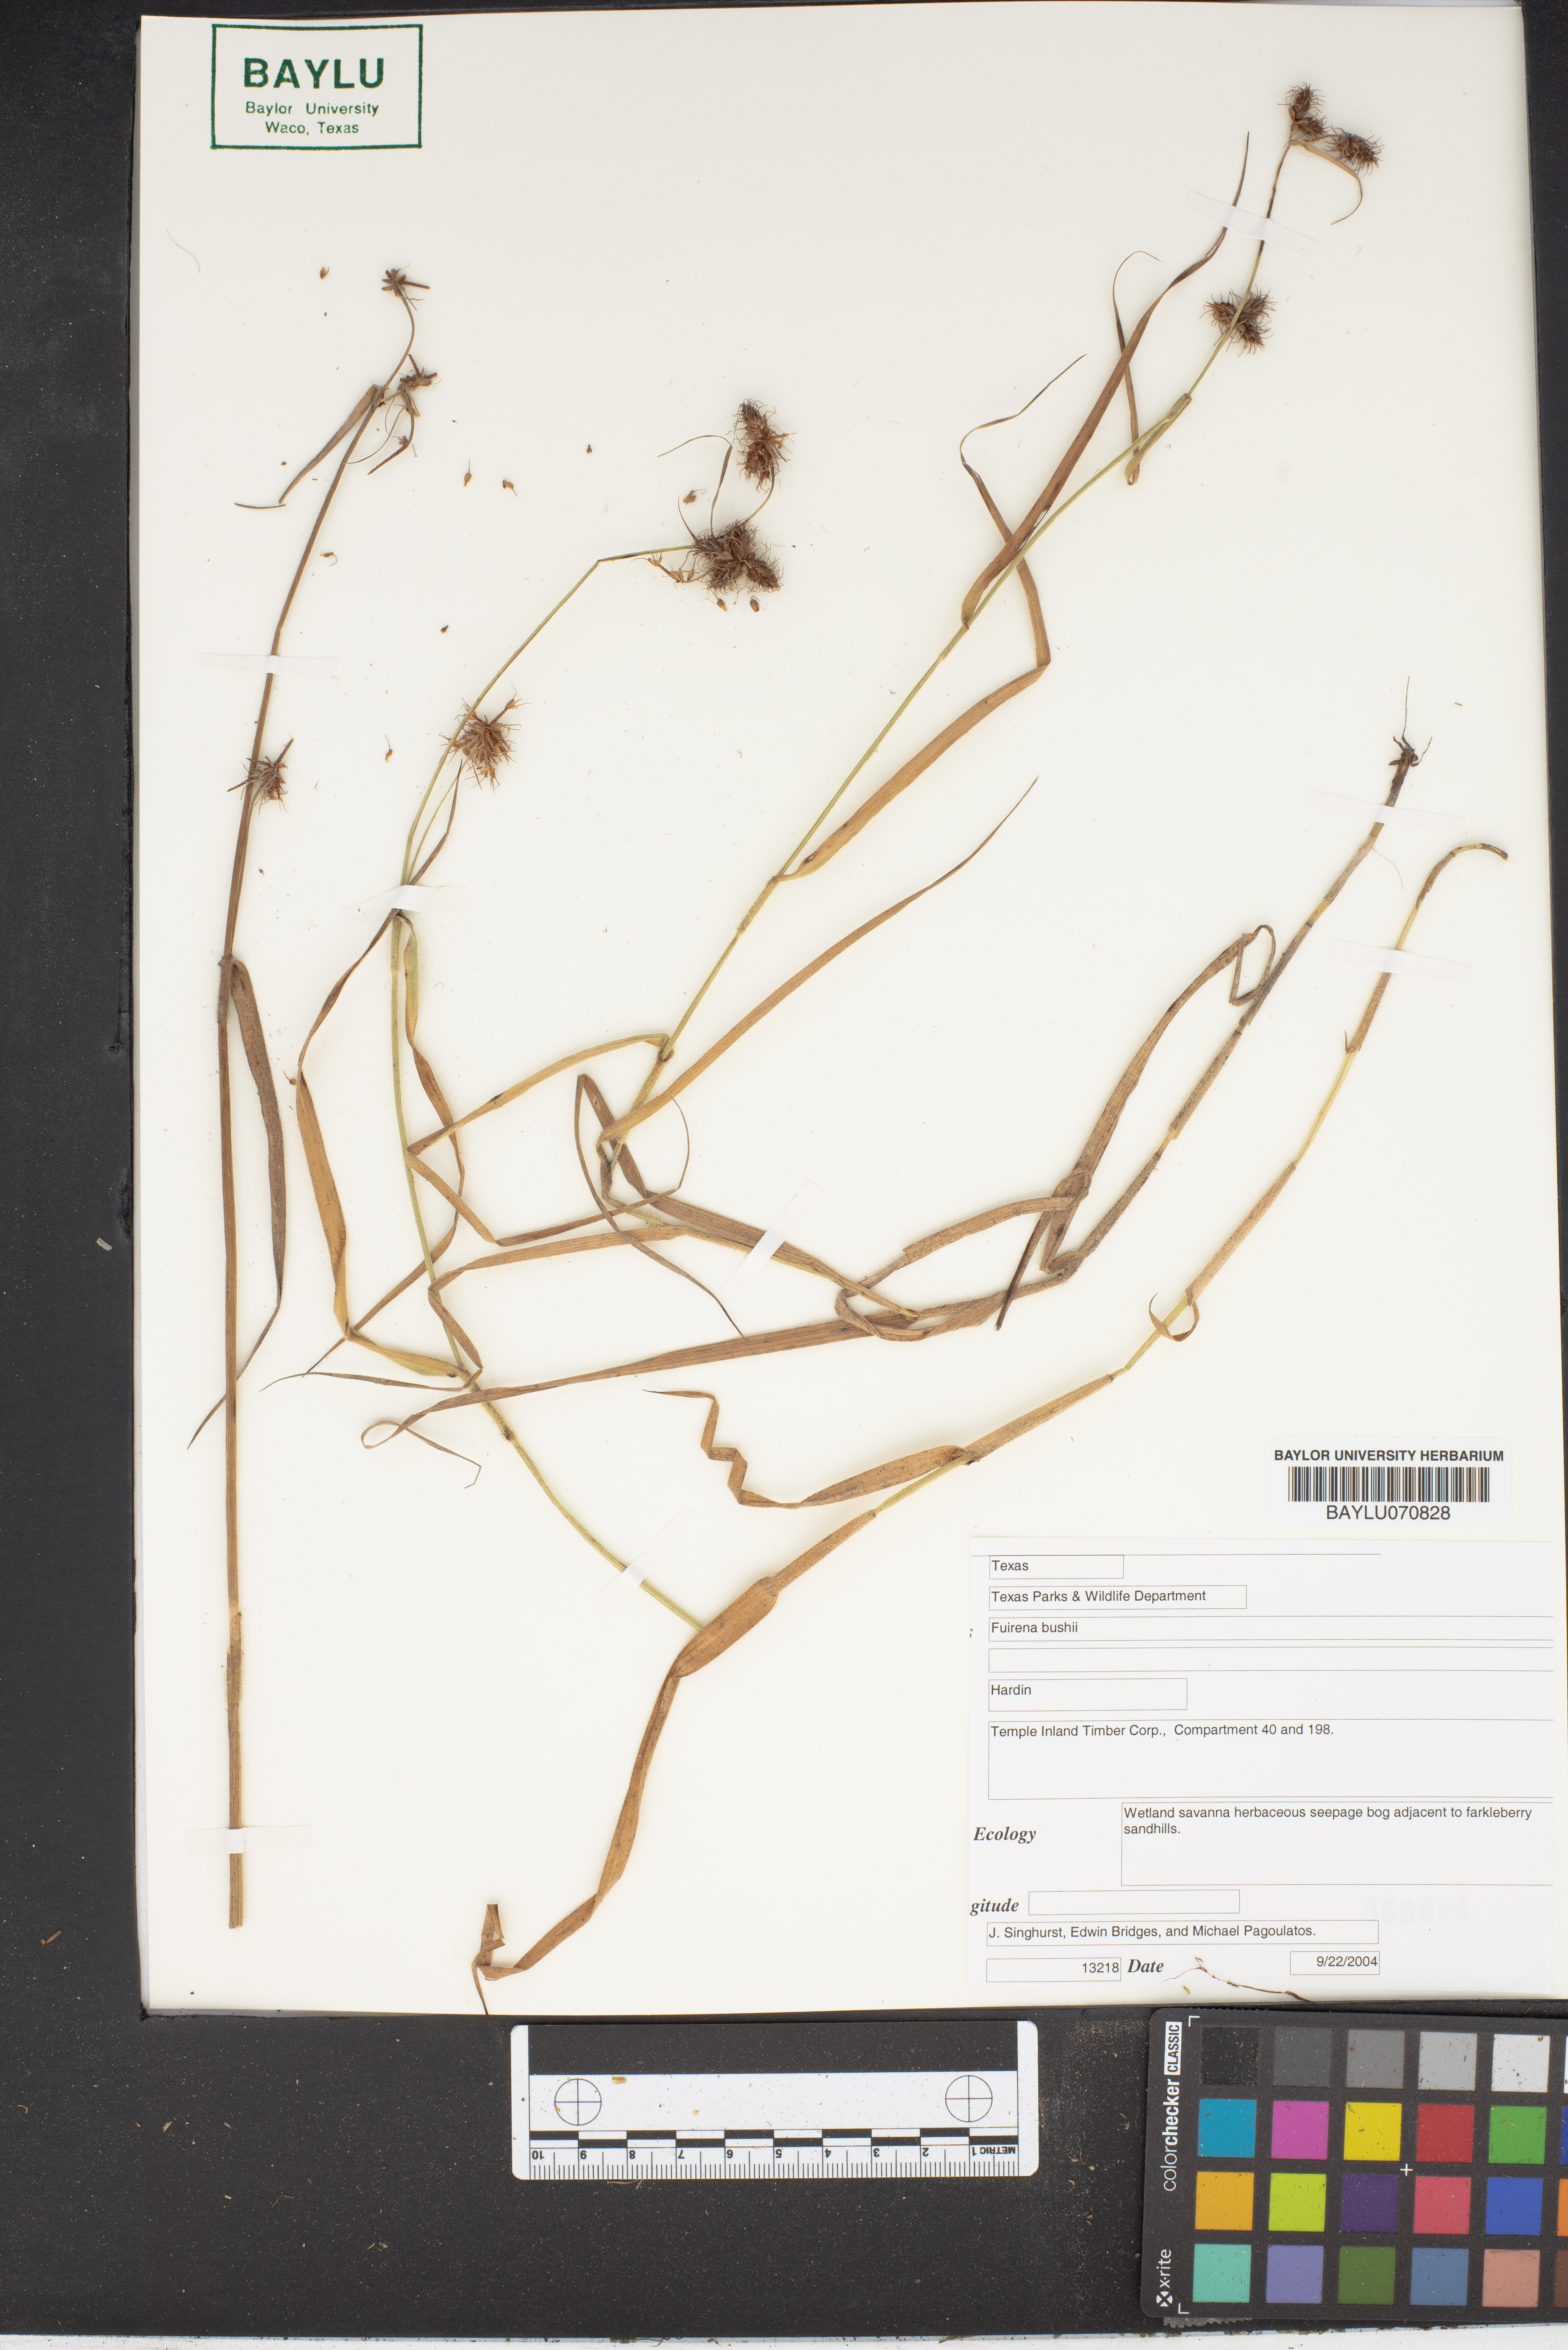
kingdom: Plantae
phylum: Tracheophyta
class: Liliopsida
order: Poales
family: Cyperaceae
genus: Fuirena
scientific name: Fuirena bushii
